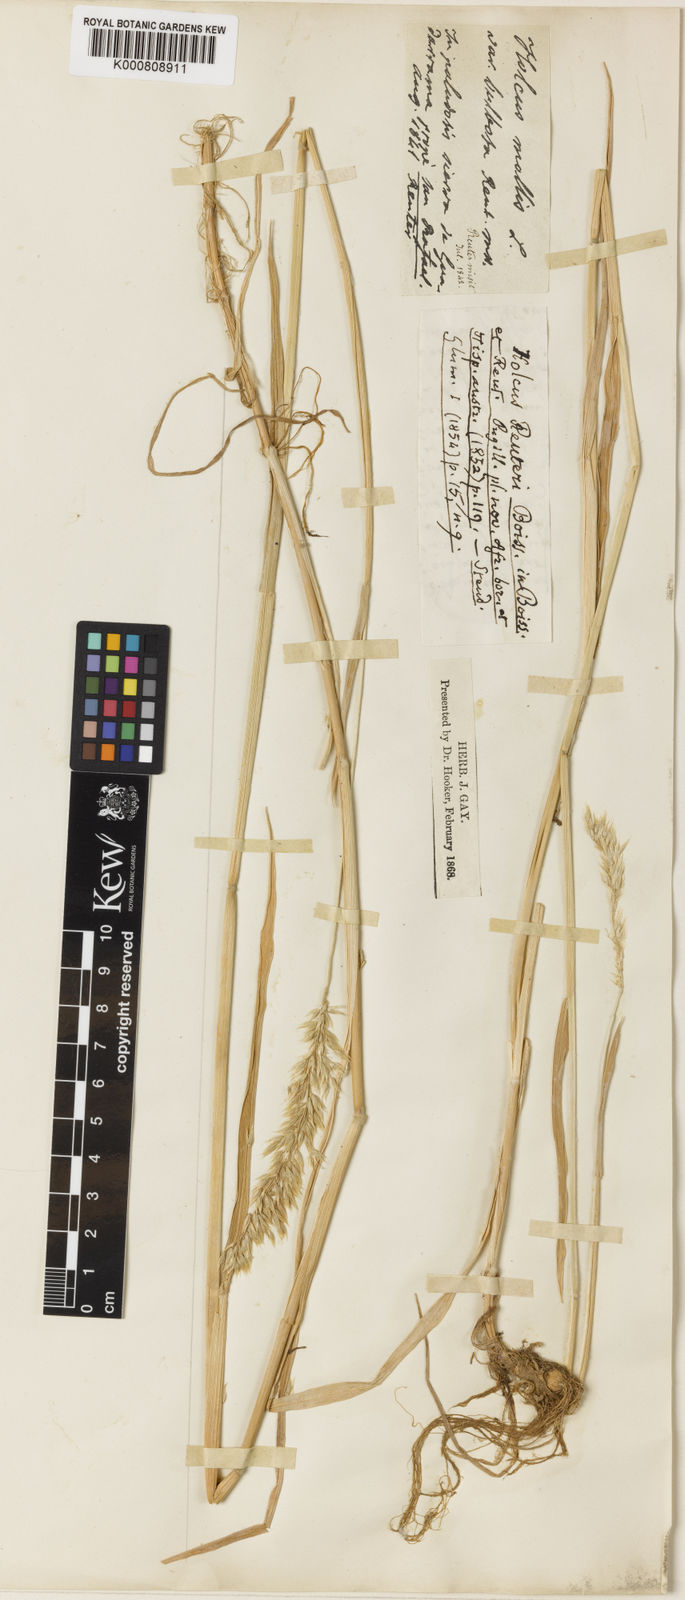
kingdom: Plantae
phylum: Tracheophyta
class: Liliopsida
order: Poales
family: Poaceae
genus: Holcus
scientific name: Holcus mollis
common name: Creeping velvetgrass
